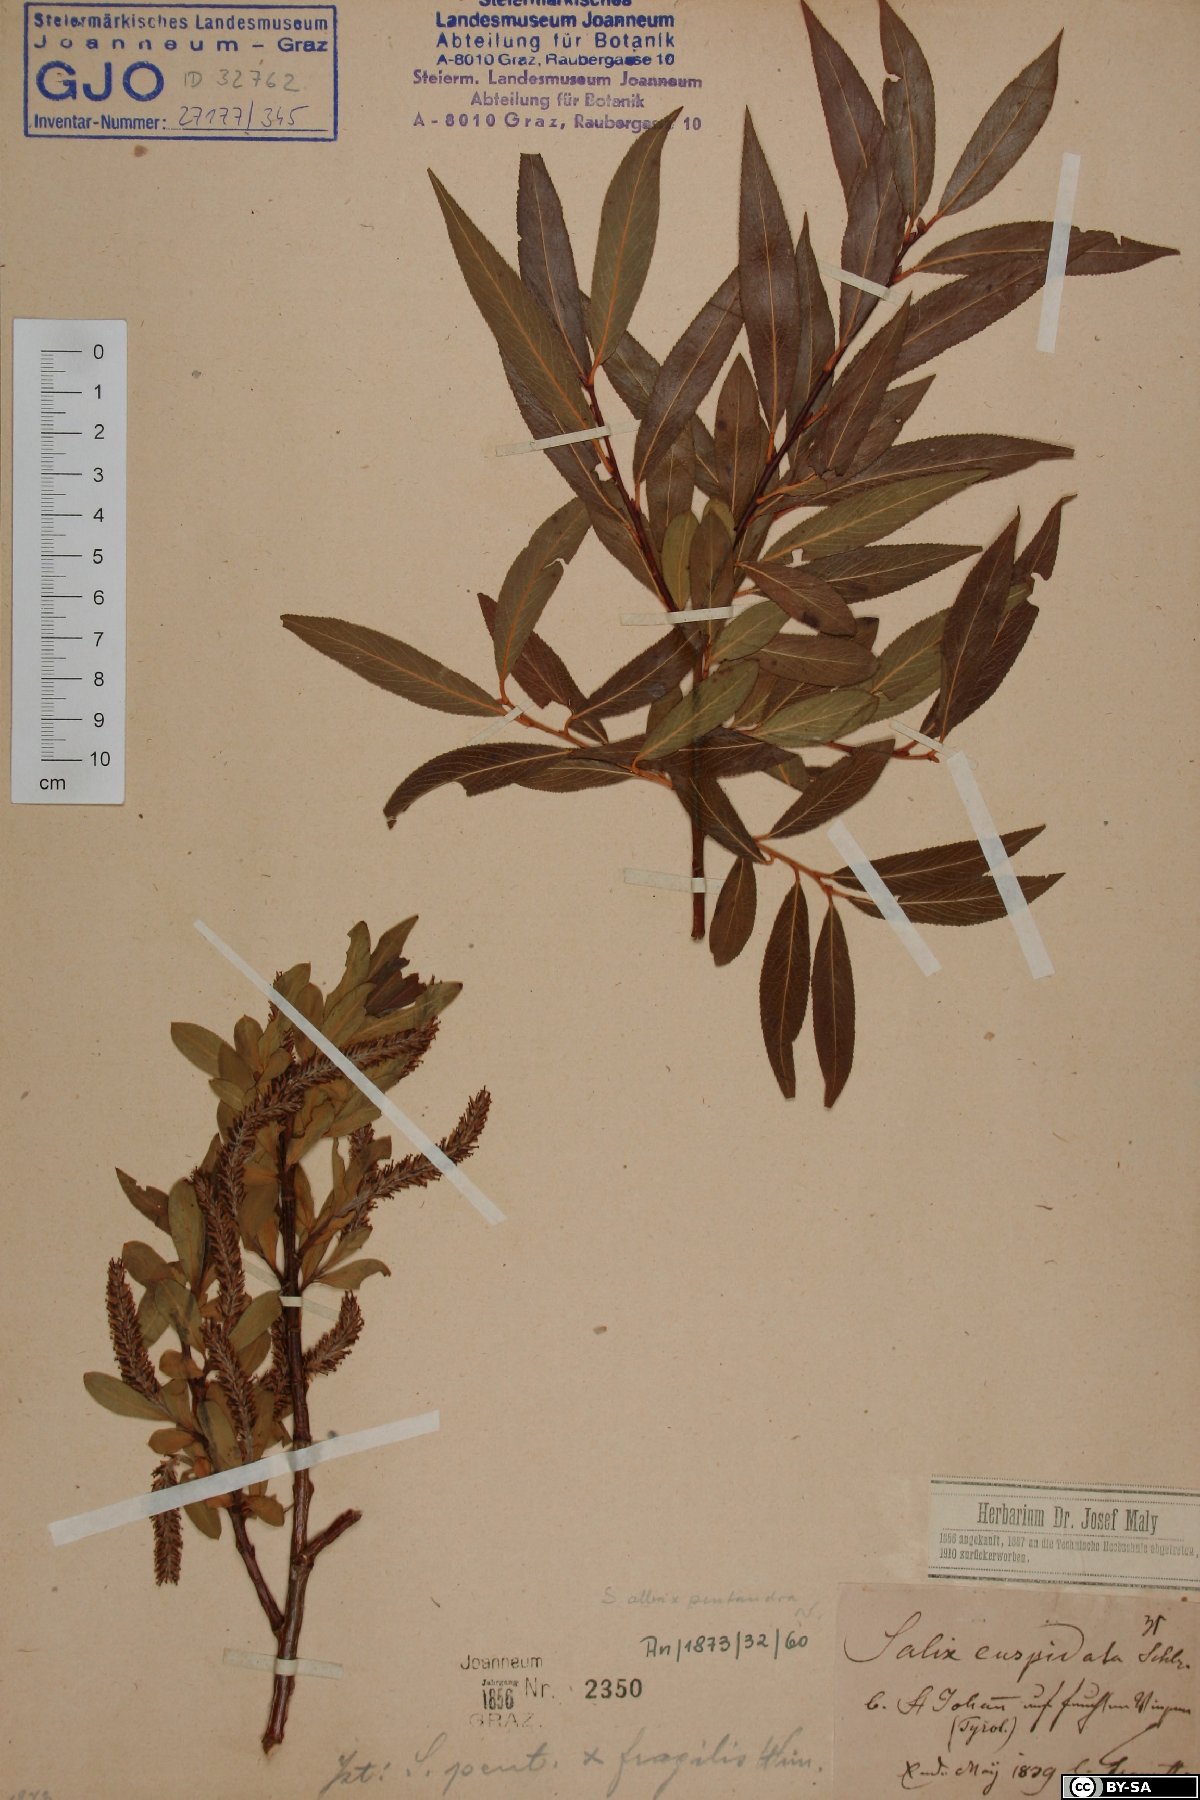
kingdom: Plantae
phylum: Tracheophyta
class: Magnoliopsida
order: Malpighiales
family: Salicaceae
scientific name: Salicaceae
